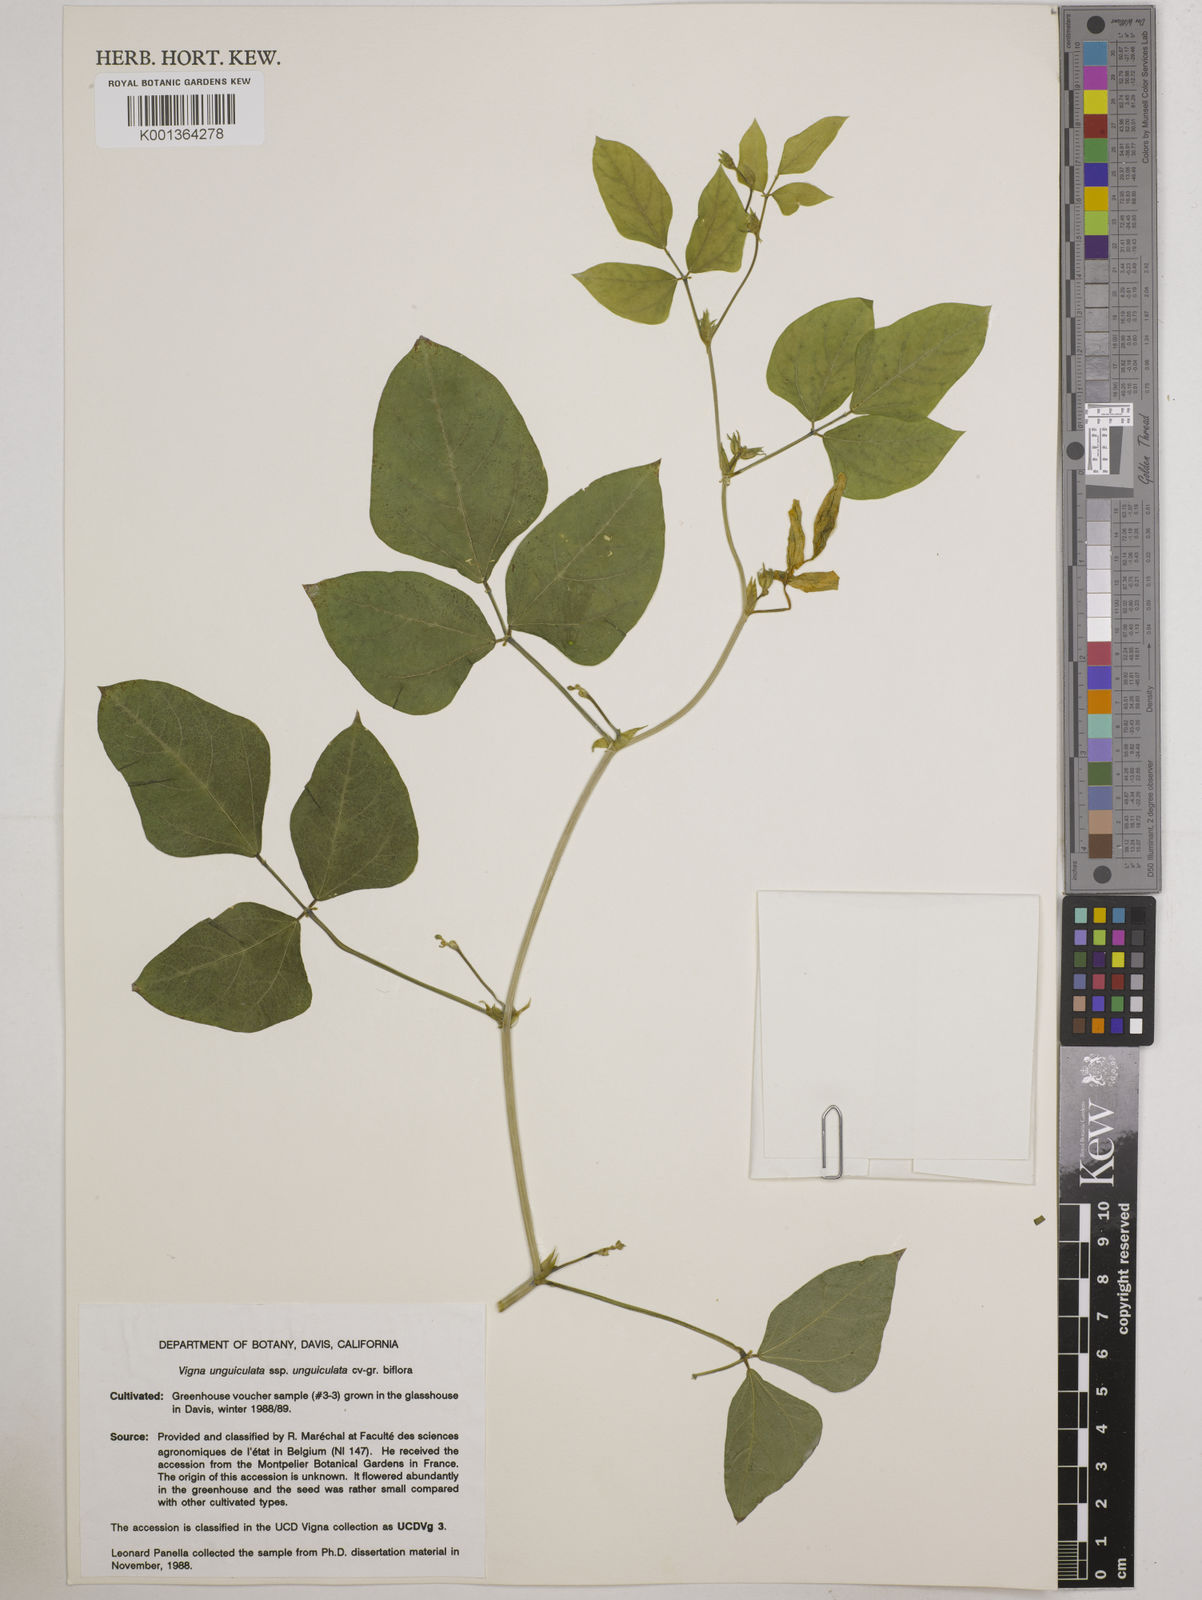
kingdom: Plantae
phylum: Tracheophyta
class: Magnoliopsida
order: Fabales
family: Fabaceae
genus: Vigna
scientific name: Vigna
